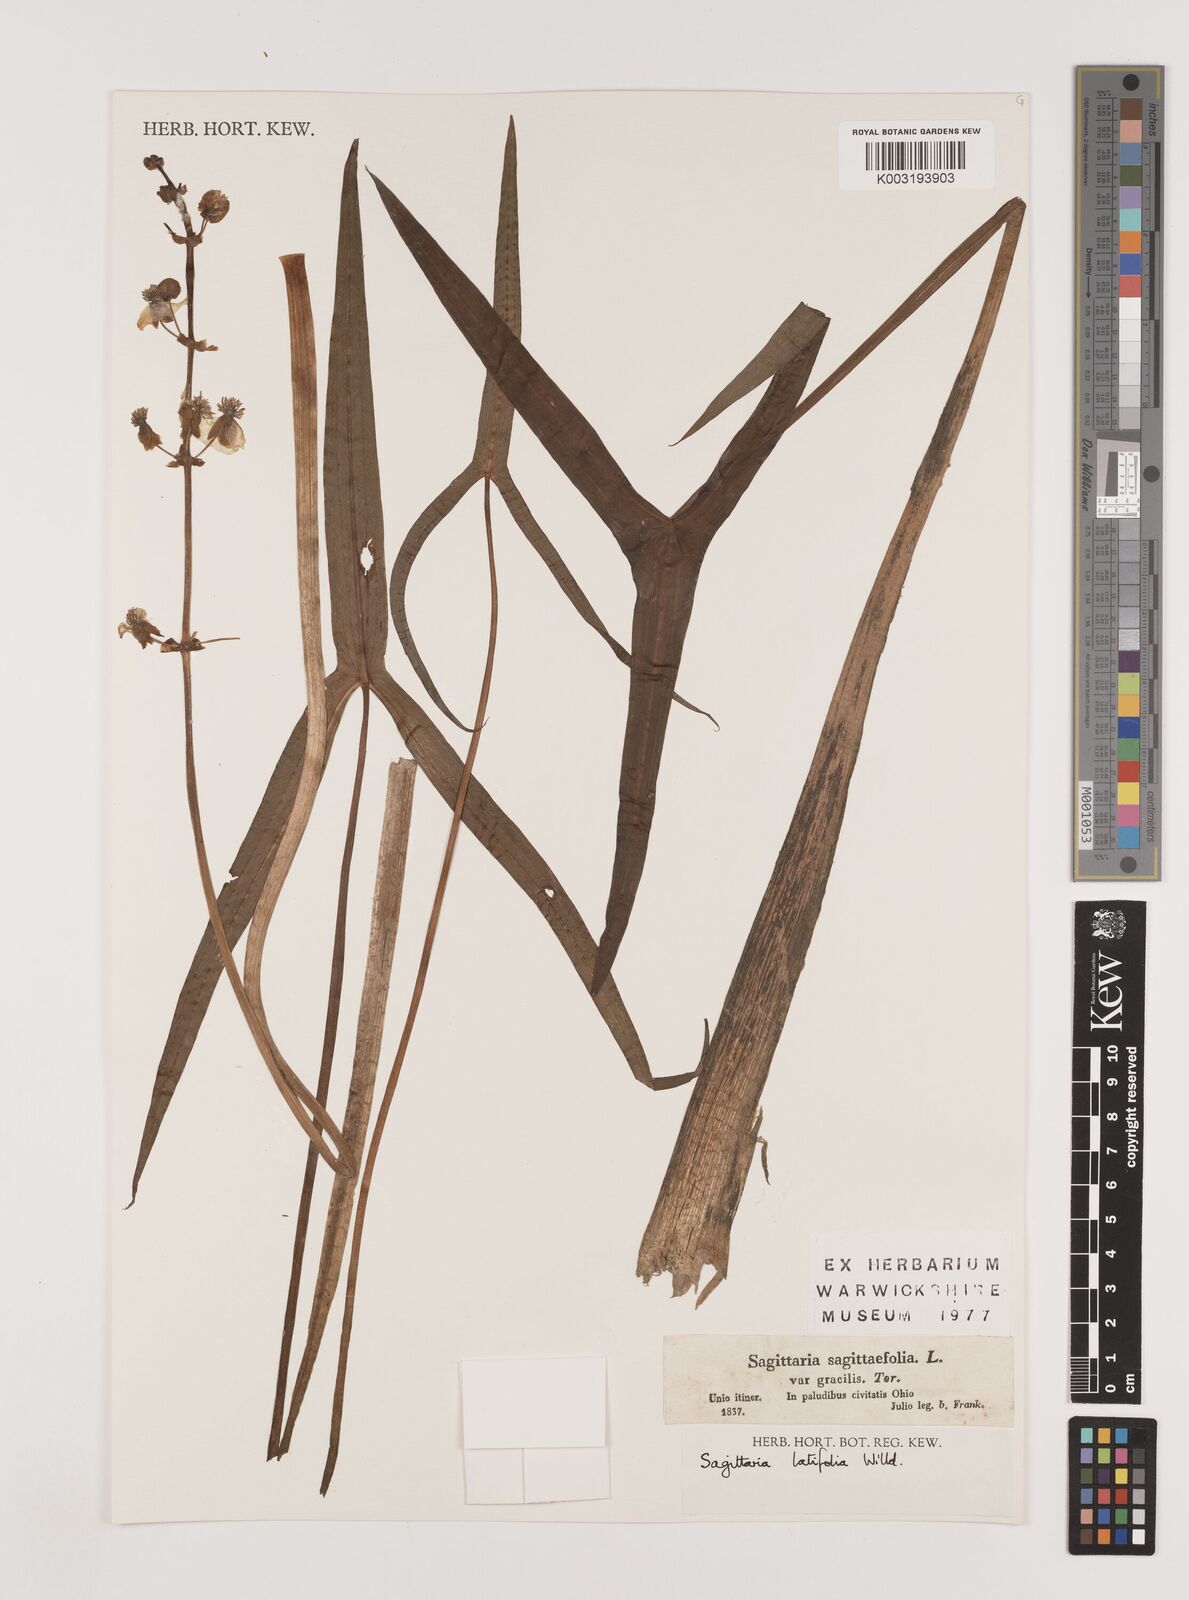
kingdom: Plantae
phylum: Tracheophyta
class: Liliopsida
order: Alismatales
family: Alismataceae
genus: Sagittaria
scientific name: Sagittaria latifolia
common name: Duck-potato
